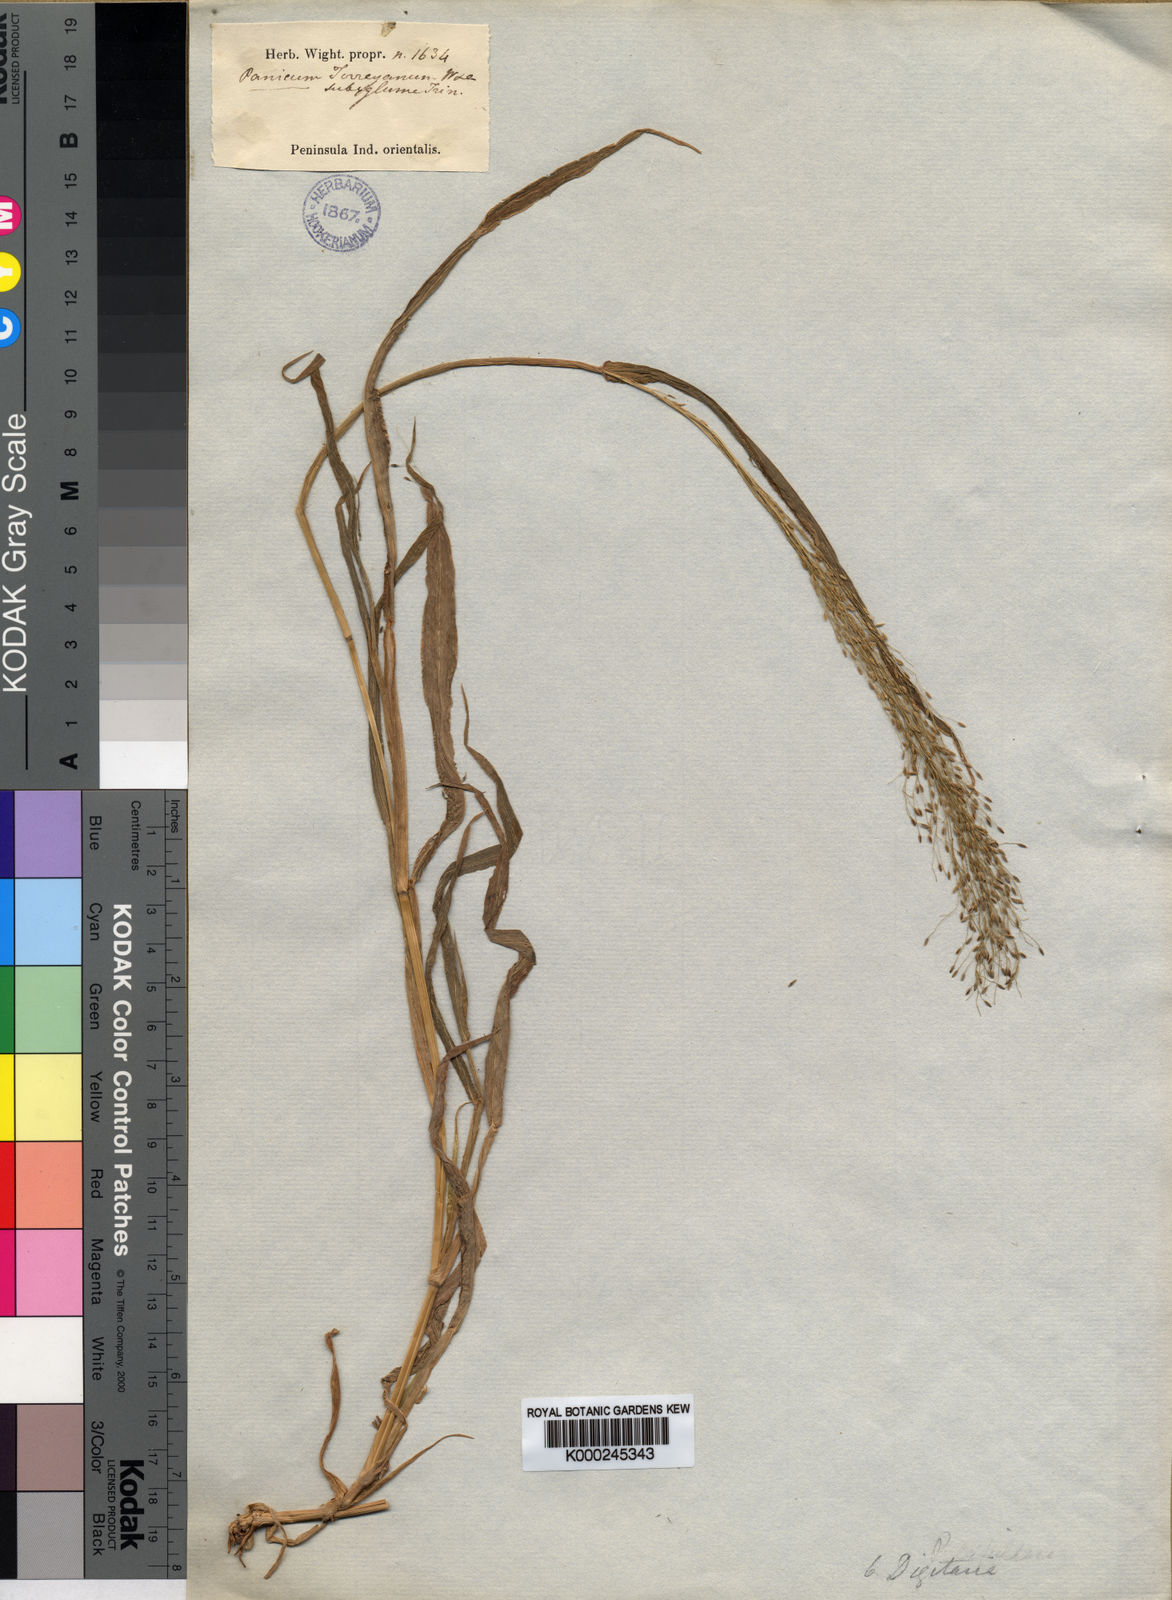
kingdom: Plantae
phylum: Tracheophyta
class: Liliopsida
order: Poales
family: Poaceae
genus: Digitaria
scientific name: Digitaria tomentosa
